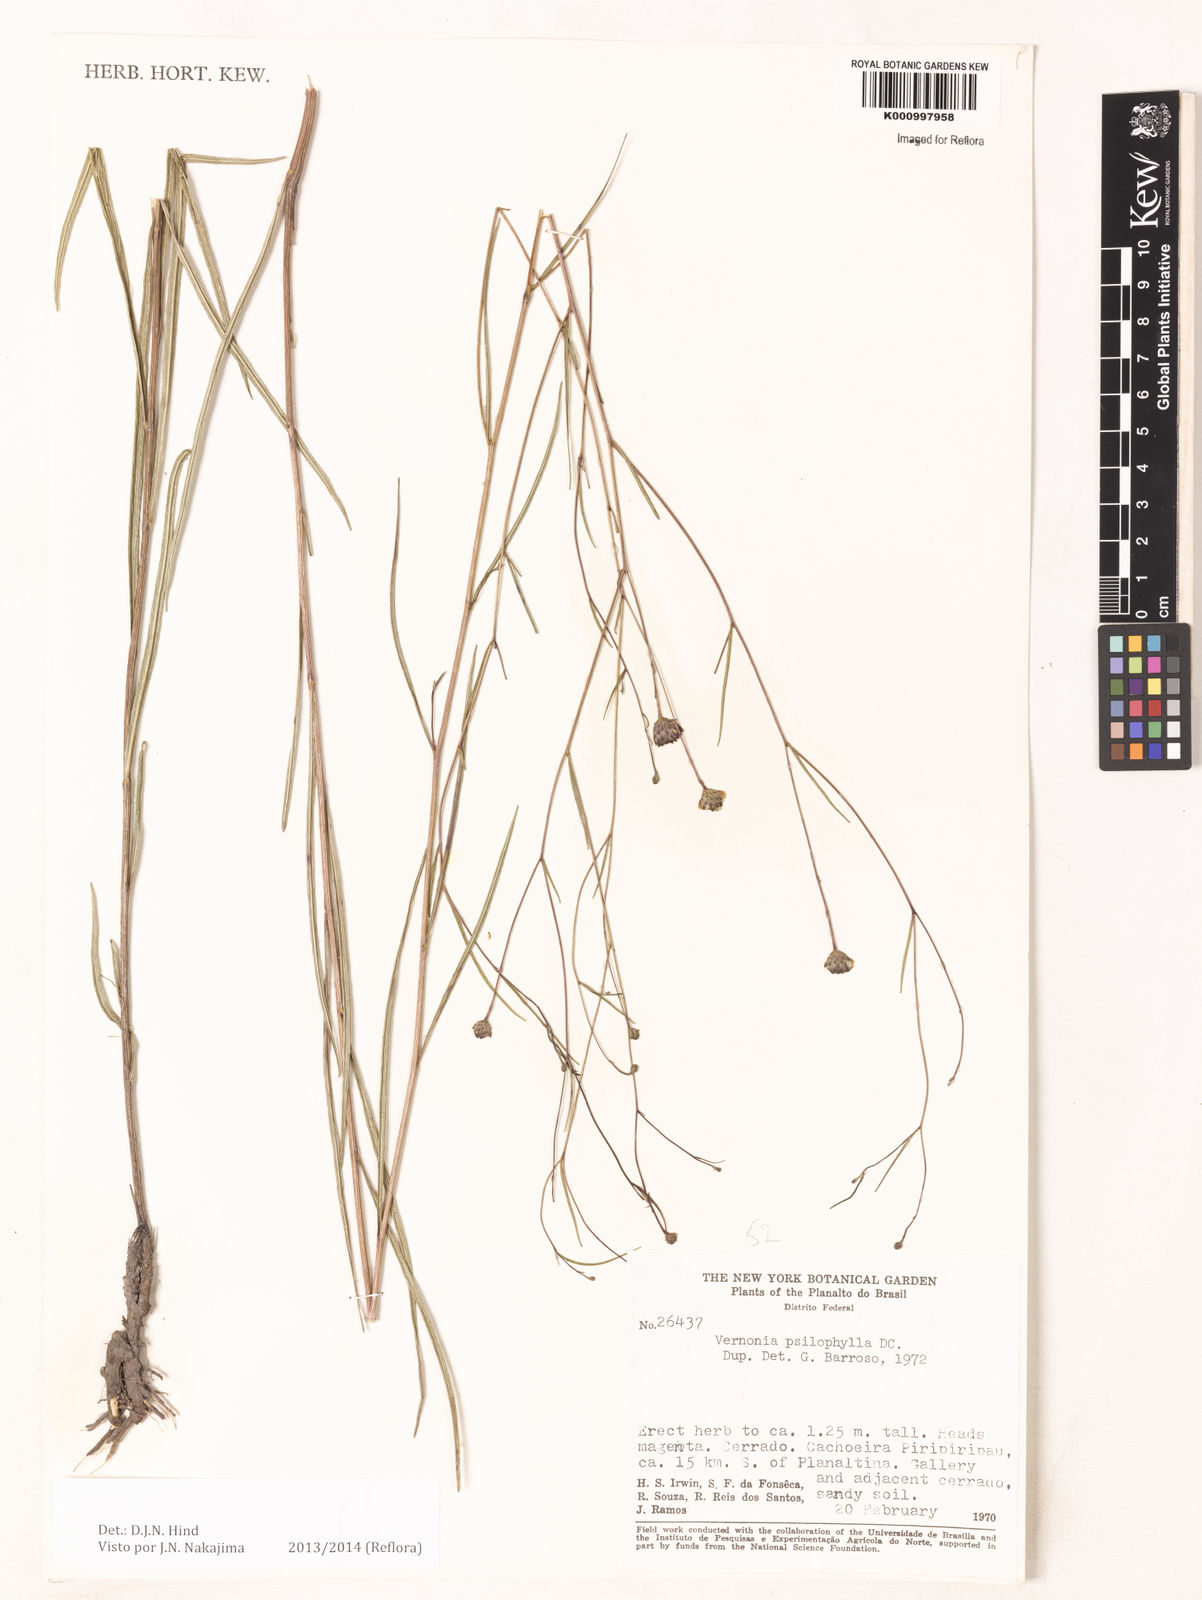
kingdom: Plantae
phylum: Tracheophyta
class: Magnoliopsida
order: Asterales
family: Asteraceae
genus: Lessingianthus
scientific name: Lessingianthus psilophyllus
